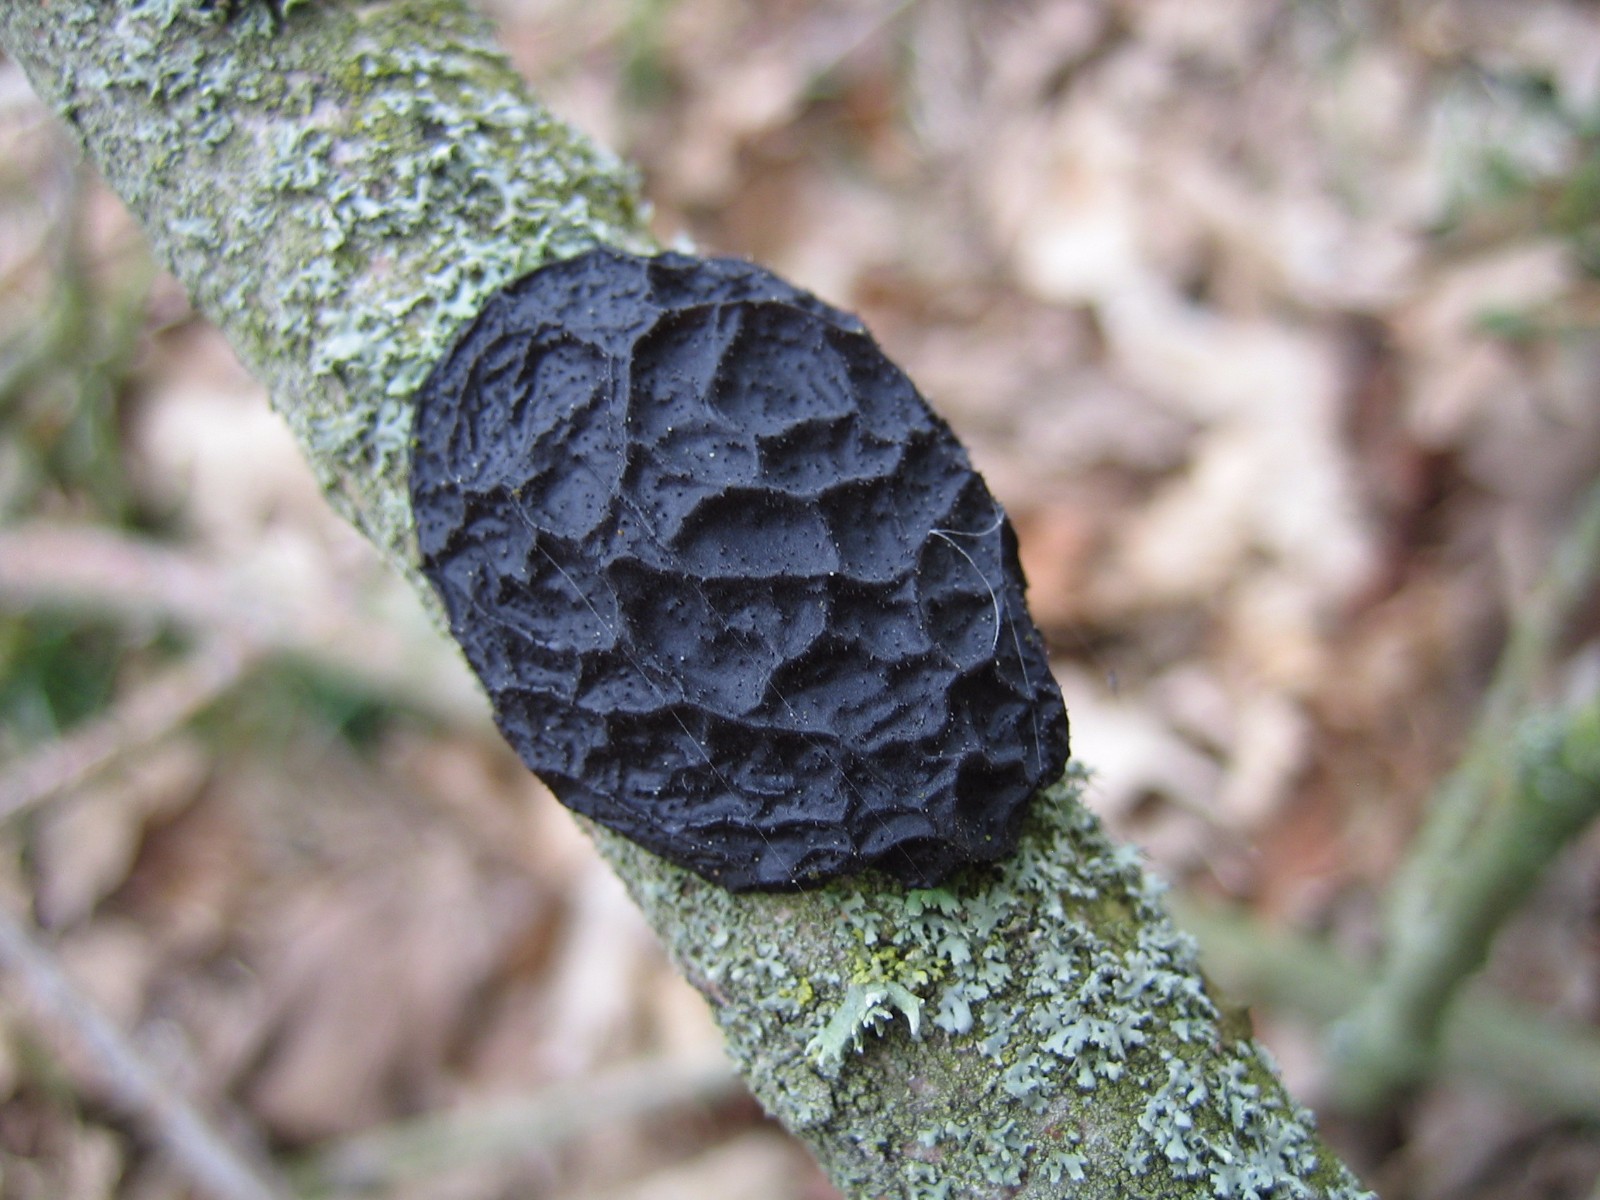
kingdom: Fungi
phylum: Basidiomycota
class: Agaricomycetes
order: Auriculariales
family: Auriculariaceae
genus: Exidia
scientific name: Exidia glandulosa
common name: ege-bævretop
